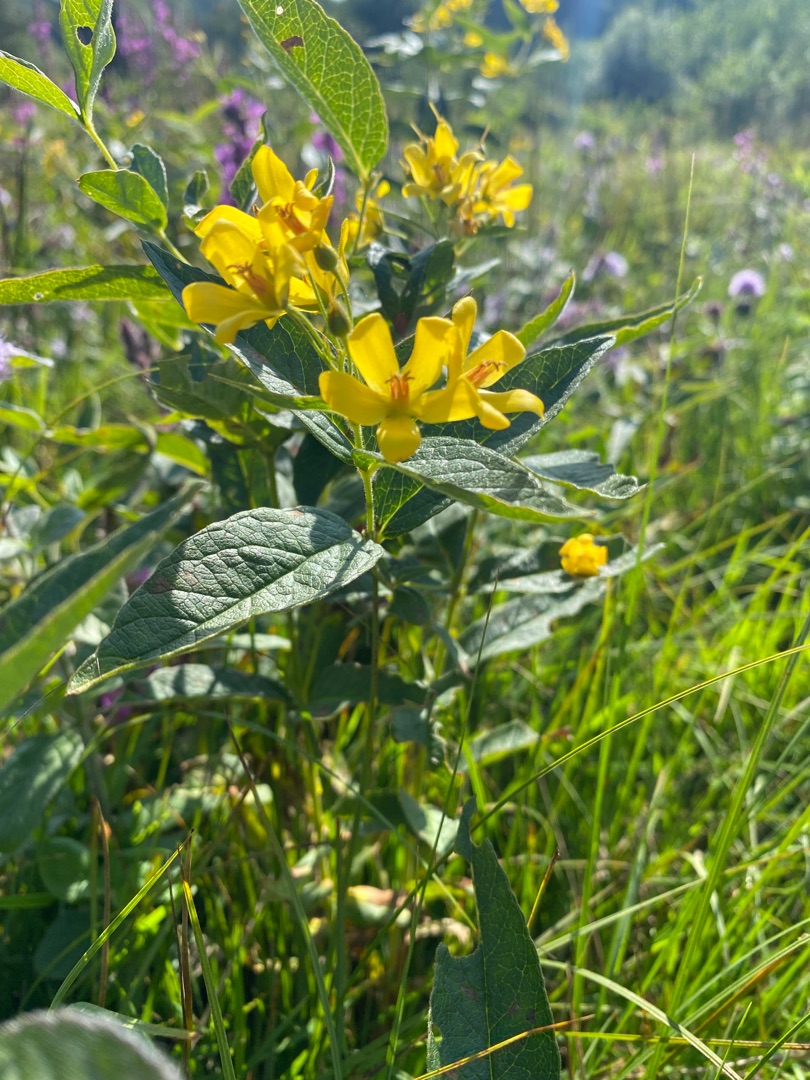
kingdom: Plantae
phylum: Tracheophyta
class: Magnoliopsida
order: Ericales
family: Primulaceae
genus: Lysimachia
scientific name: Lysimachia vulgaris
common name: Almindelig fredløs
